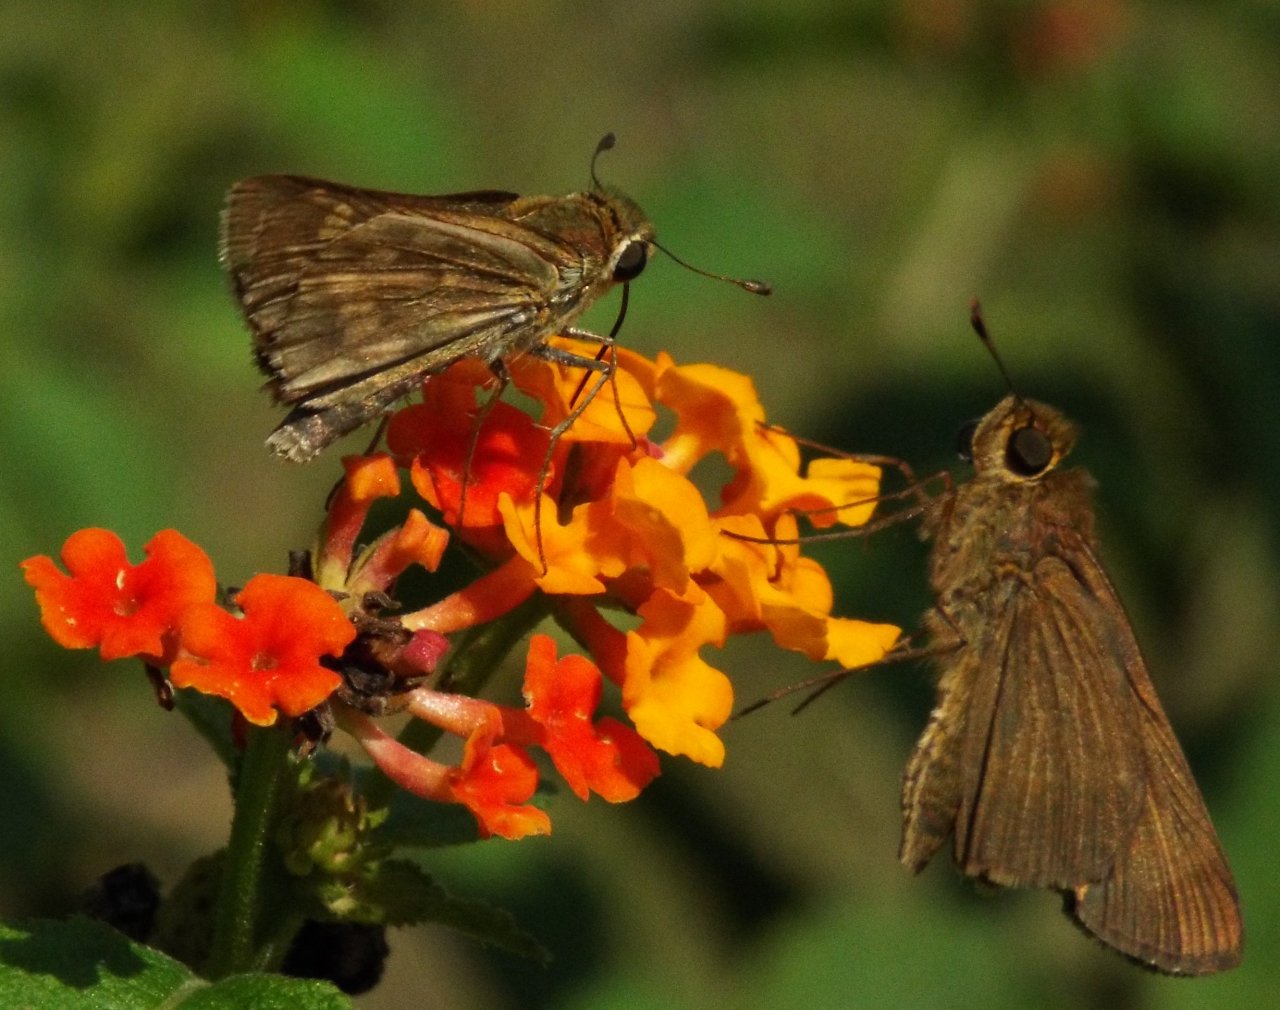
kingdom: Animalia
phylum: Arthropoda
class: Insecta
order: Lepidoptera
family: Hesperiidae
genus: Atalopedes
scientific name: Atalopedes campestris
